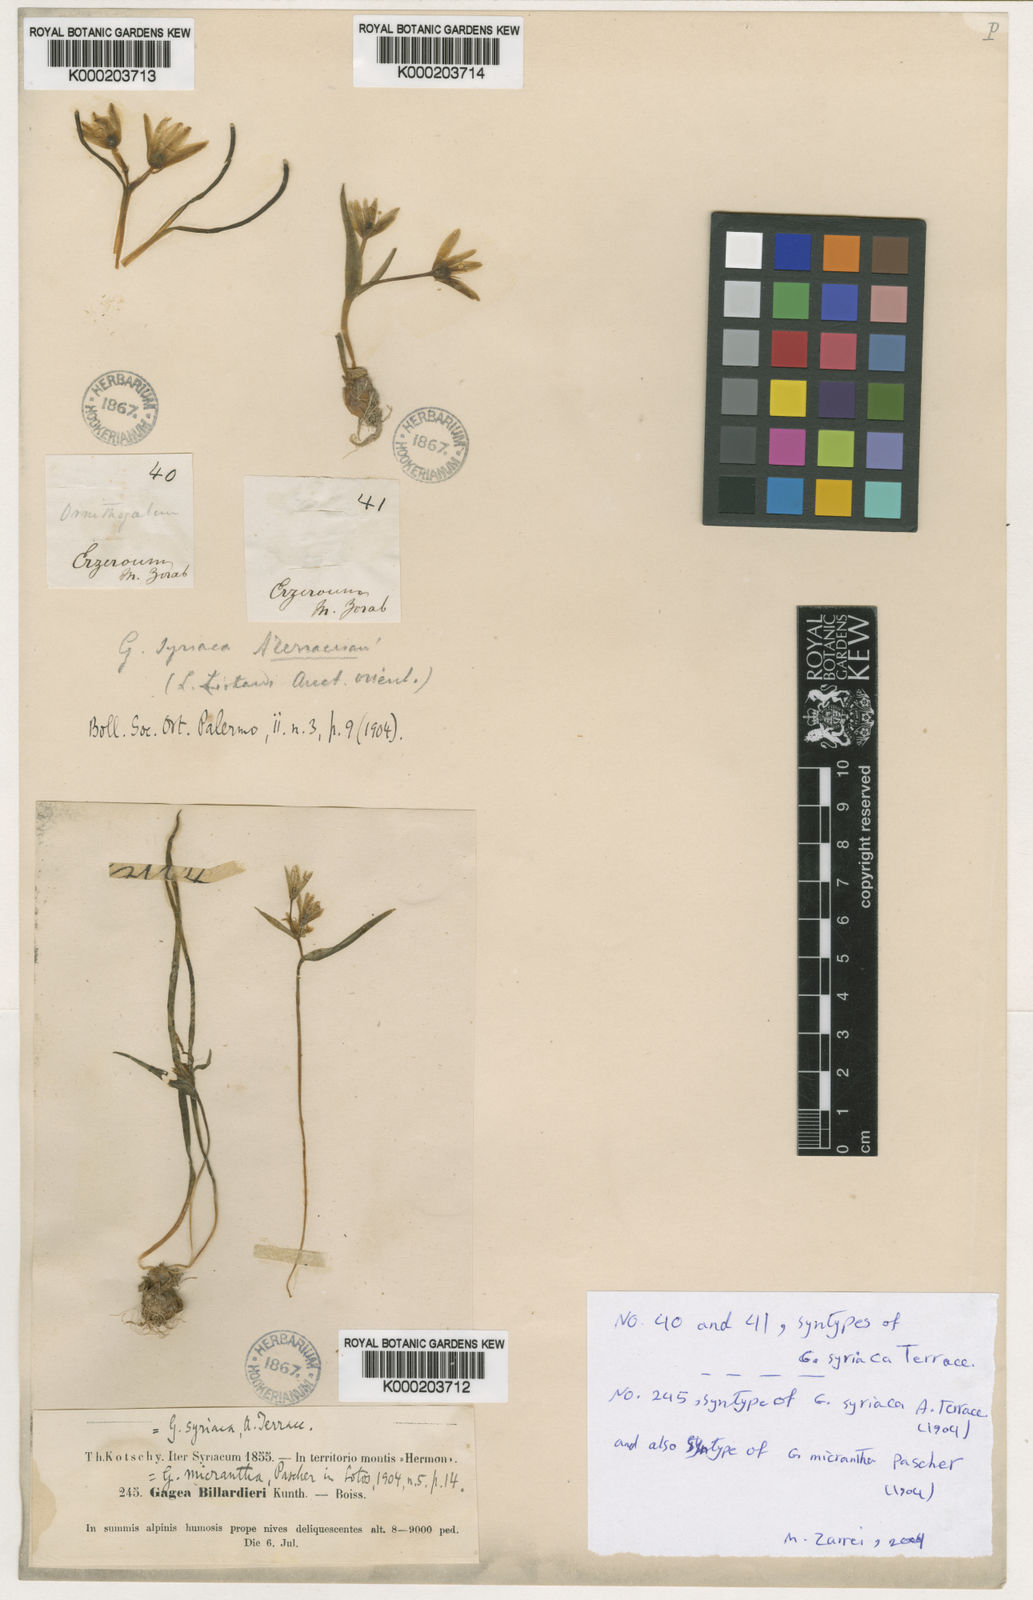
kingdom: Plantae
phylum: Tracheophyta
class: Liliopsida
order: Liliales
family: Liliaceae
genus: Gagea
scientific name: Gagea luteoides
